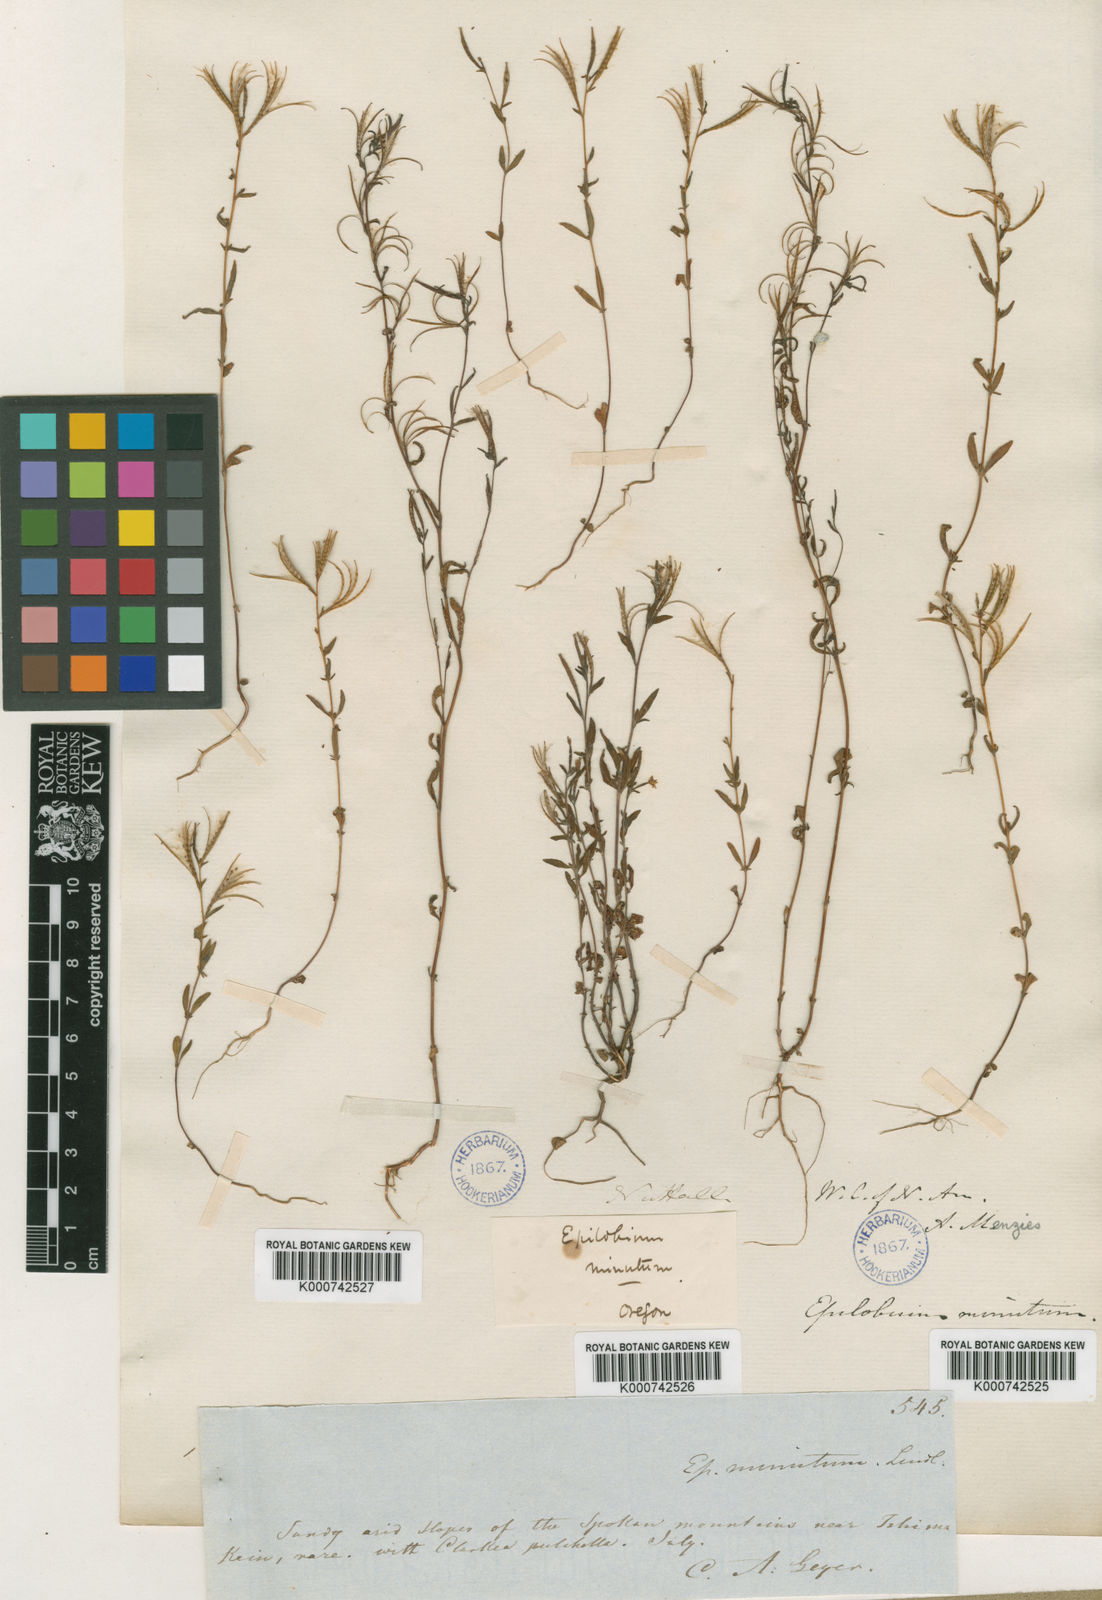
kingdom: Plantae
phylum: Tracheophyta
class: Magnoliopsida
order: Myrtales
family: Onagraceae
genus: Epilobium
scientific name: Epilobium
